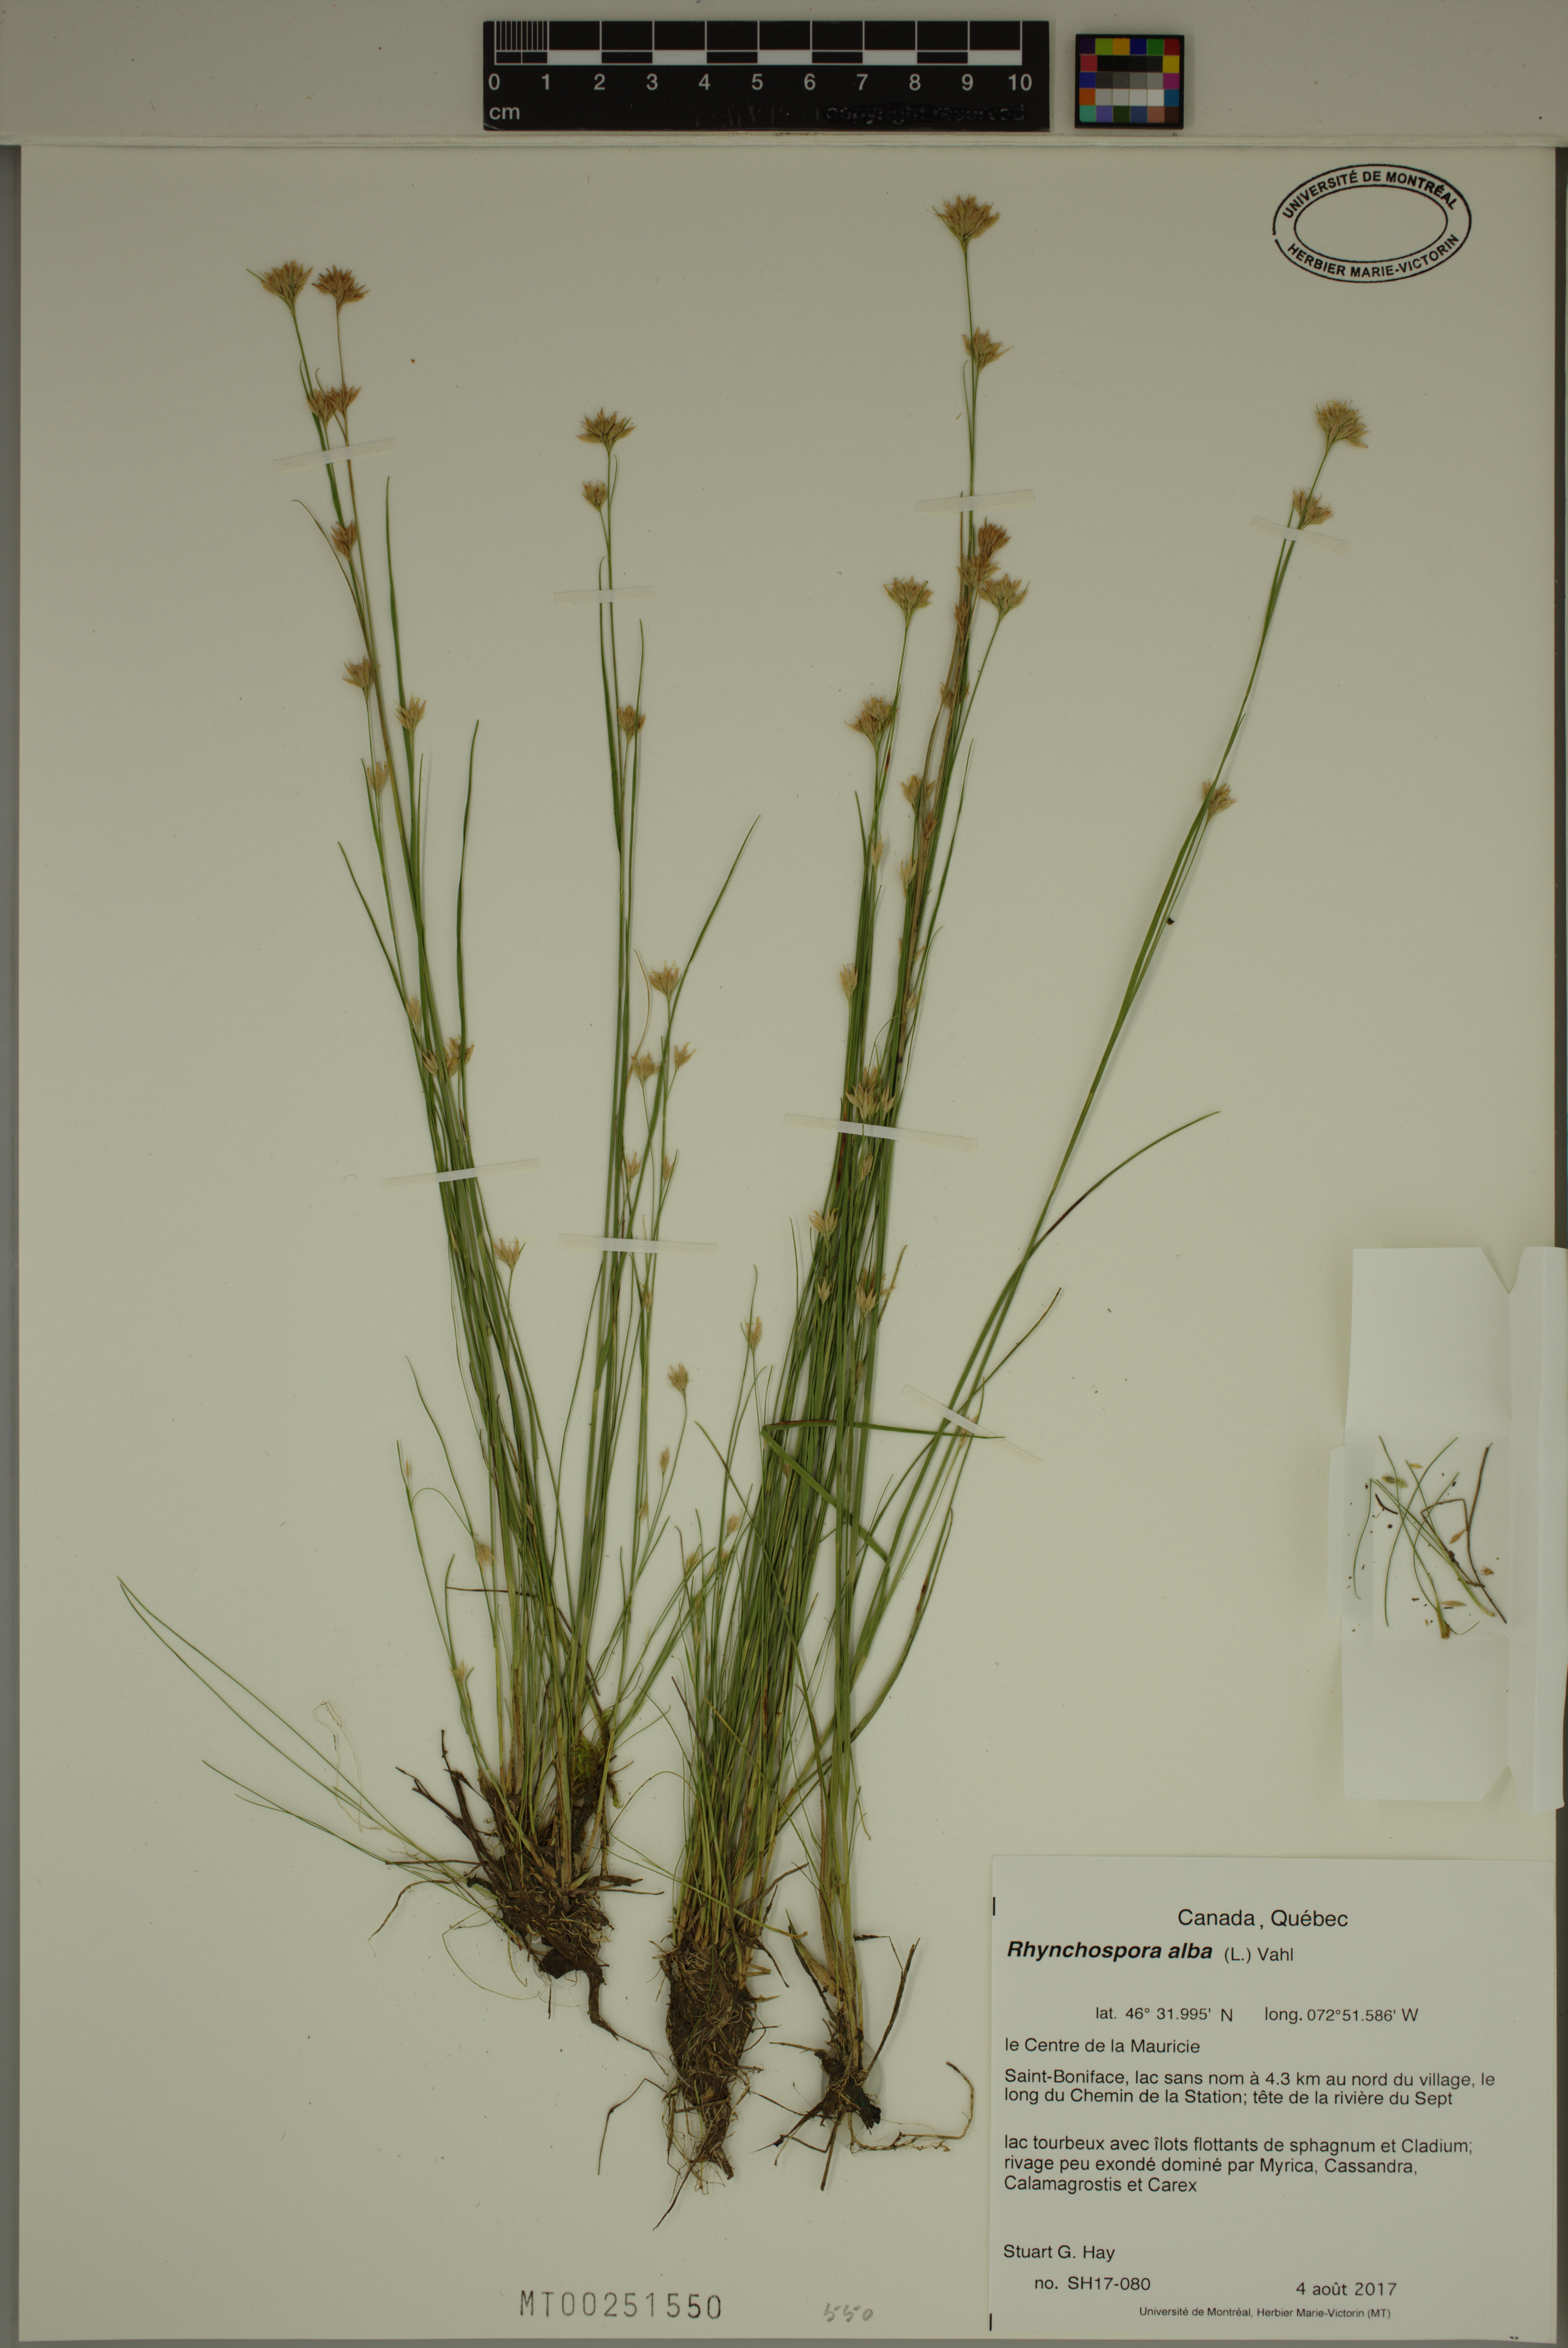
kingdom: Plantae
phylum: Tracheophyta
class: Liliopsida
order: Poales
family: Cyperaceae
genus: Rhynchospora
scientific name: Rhynchospora alba
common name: White beak-sedge
